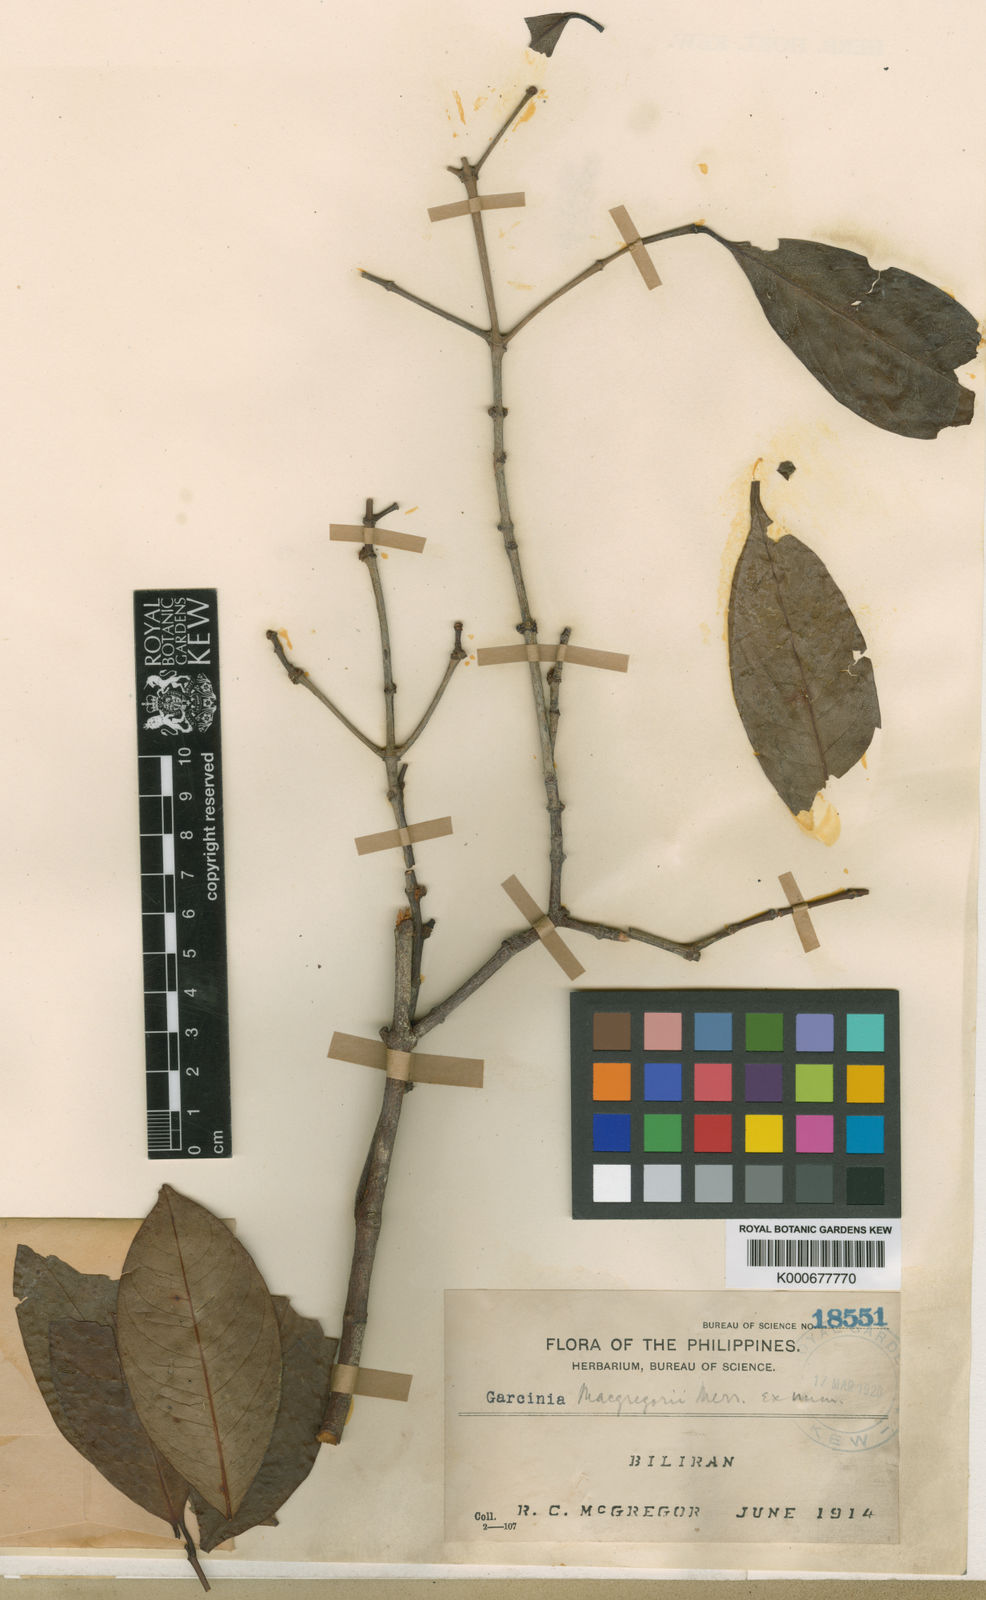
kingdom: Plantae
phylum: Tracheophyta
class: Magnoliopsida
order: Malpighiales
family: Clusiaceae
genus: Garcinia
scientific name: Garcinia macgregorii
